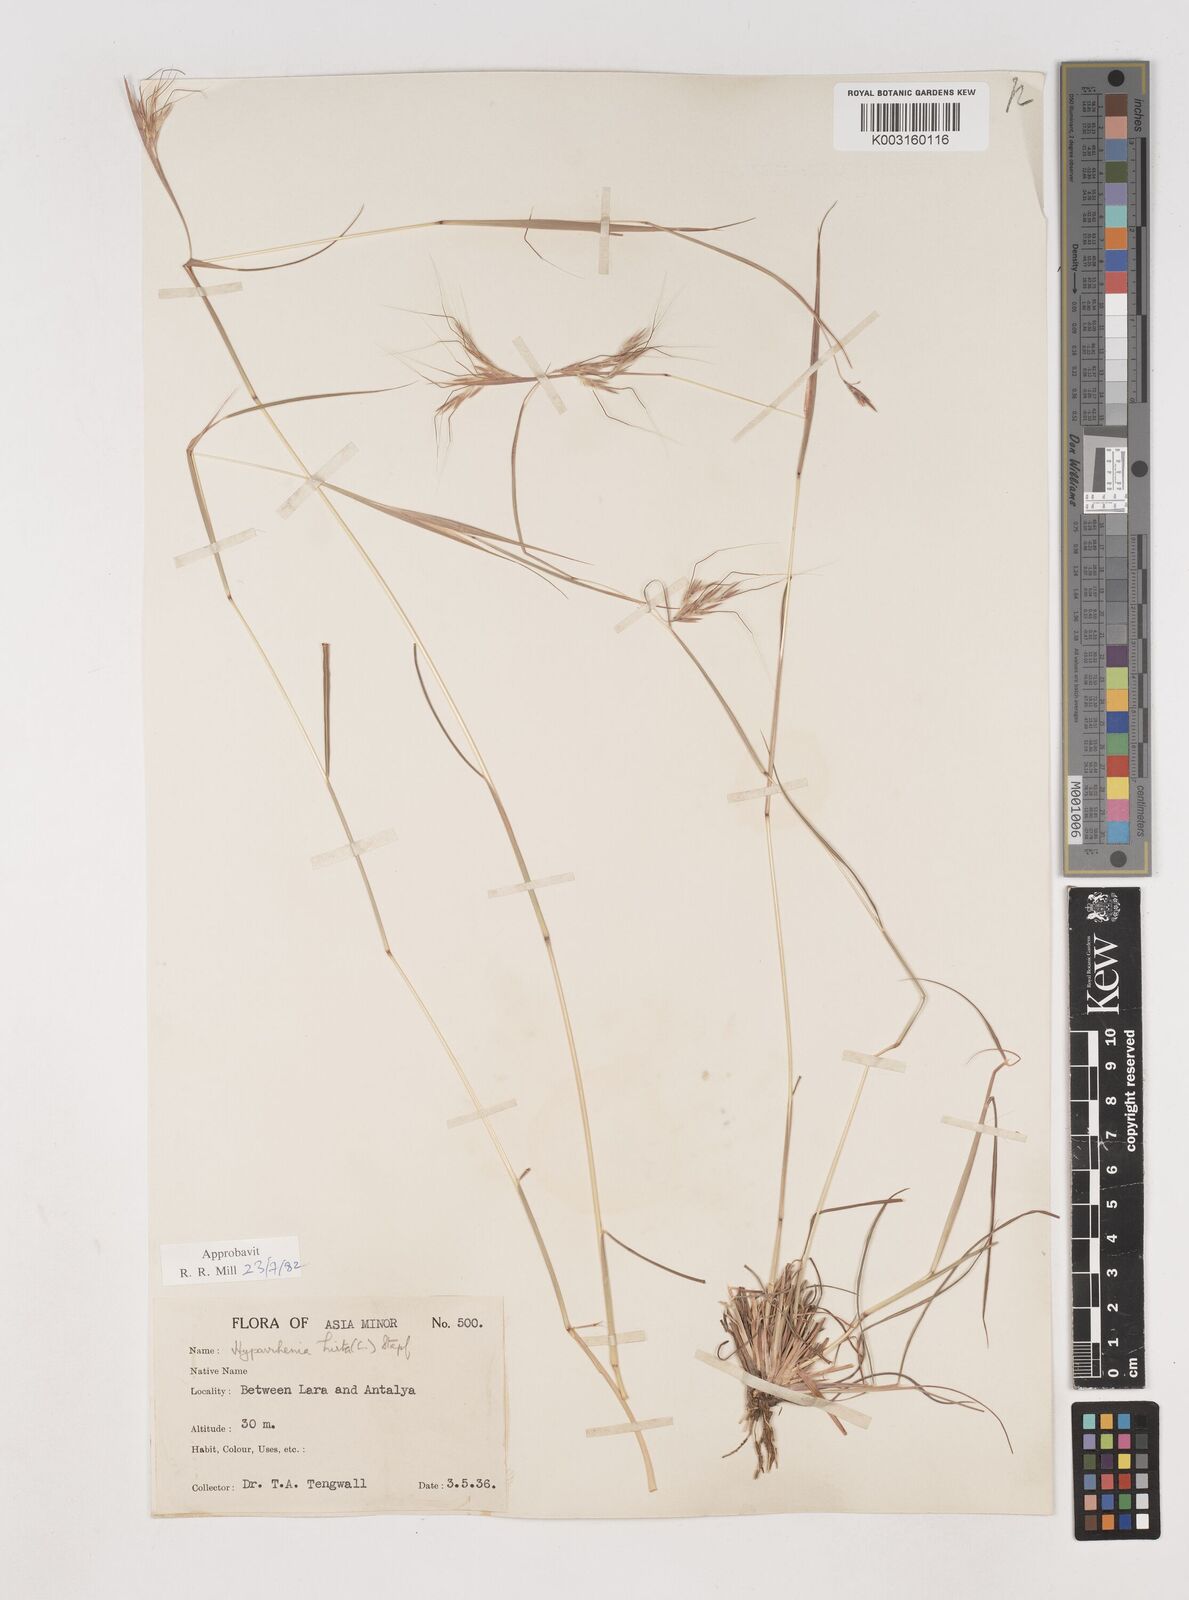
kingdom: Plantae
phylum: Tracheophyta
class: Liliopsida
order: Poales
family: Poaceae
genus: Hyparrhenia
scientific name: Hyparrhenia hirta
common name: Thatching grass
